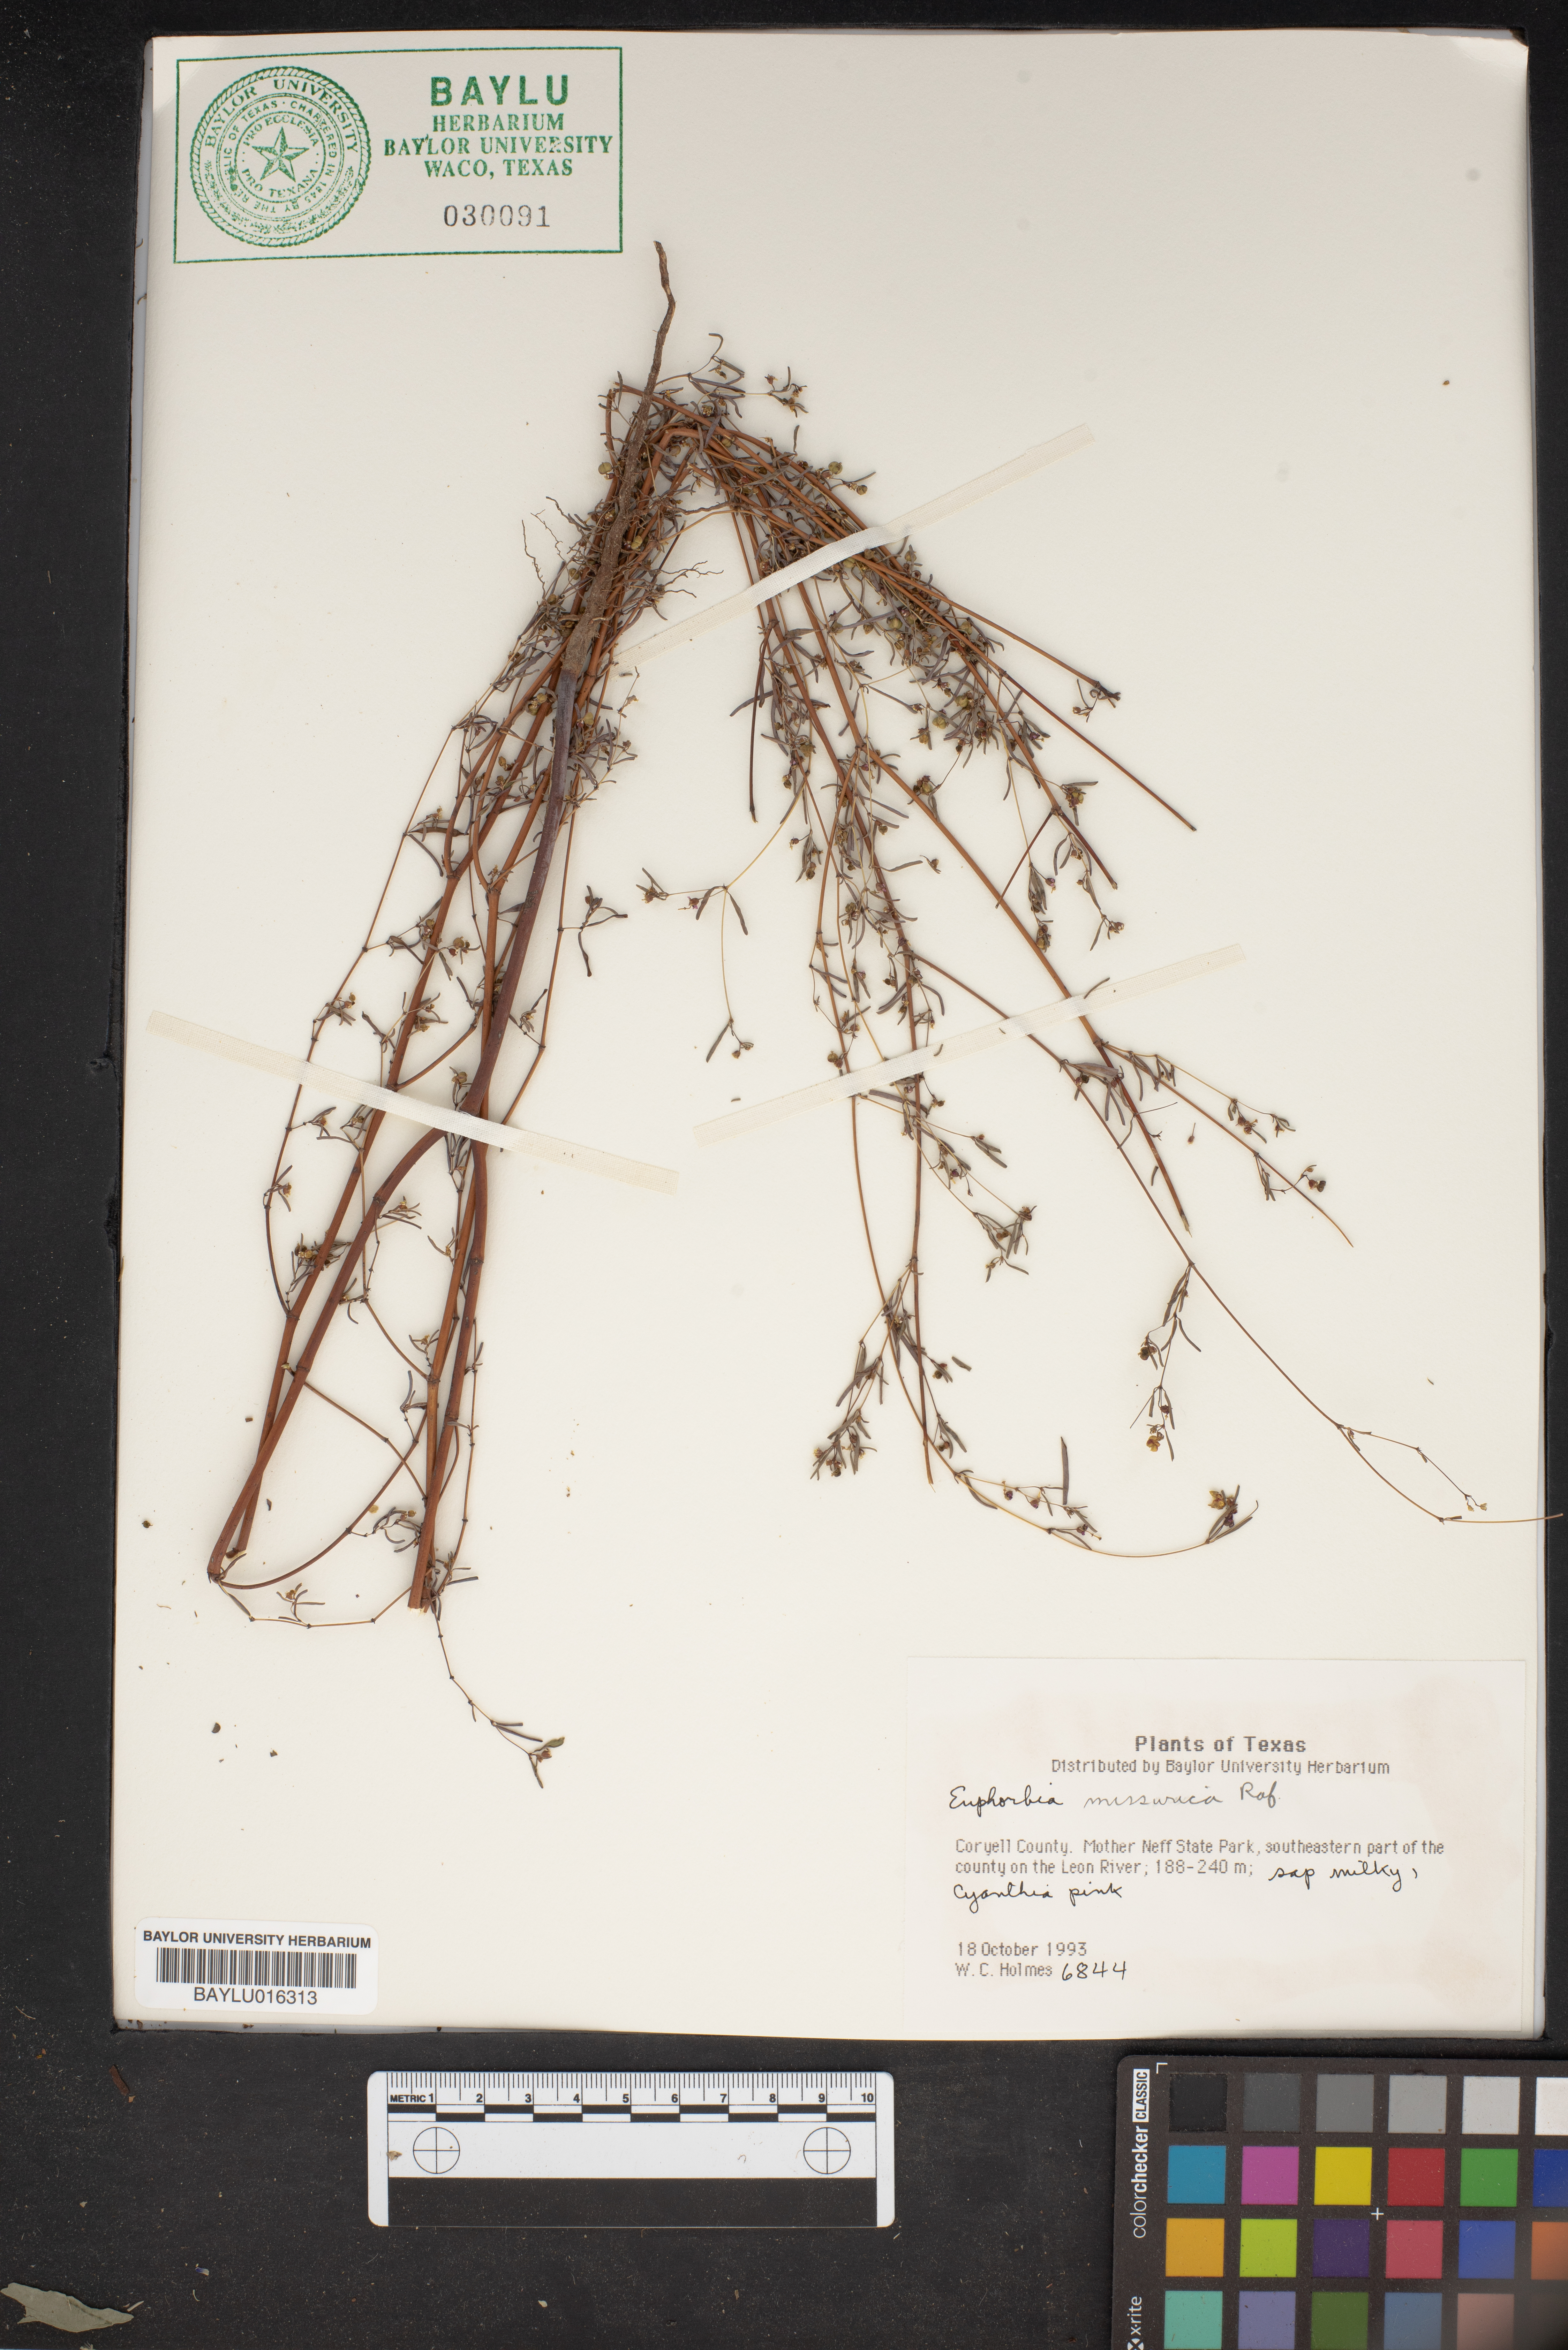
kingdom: Plantae
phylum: Tracheophyta
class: Magnoliopsida
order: Malpighiales
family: Euphorbiaceae
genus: Euphorbia
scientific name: Euphorbia missurica
